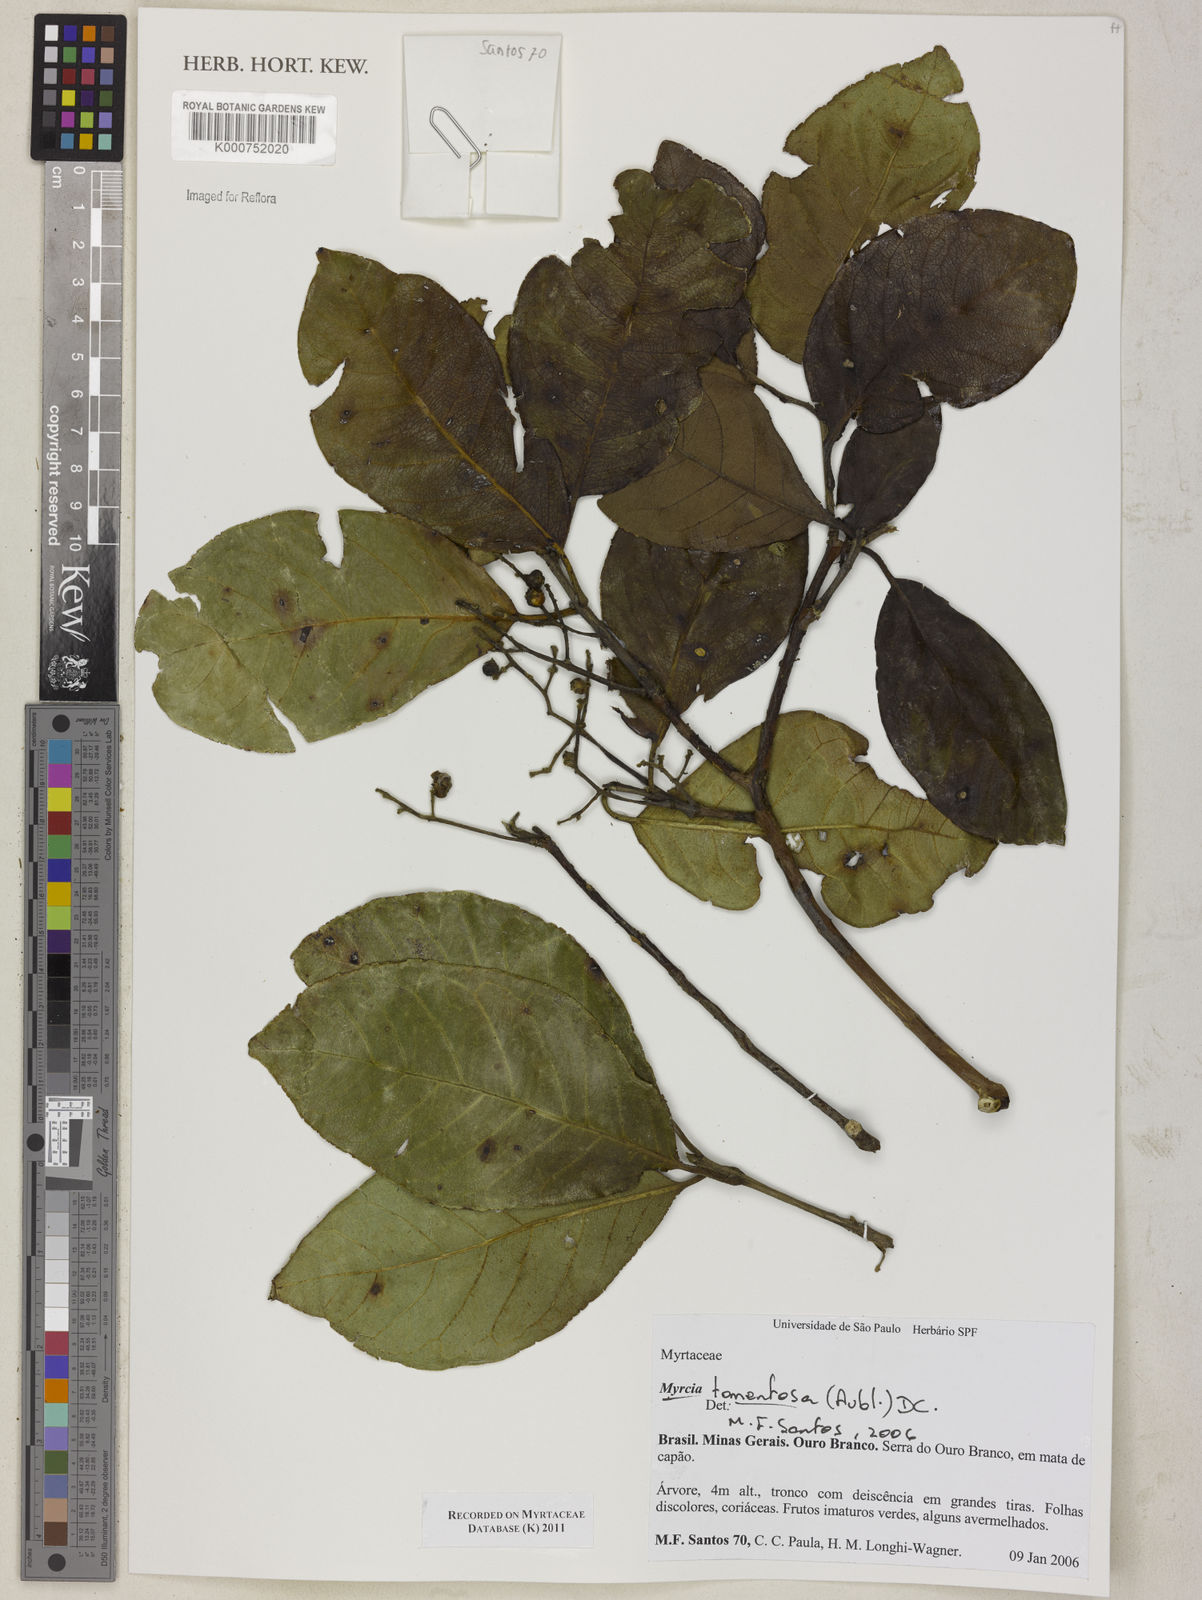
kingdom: Plantae
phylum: Tracheophyta
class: Magnoliopsida
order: Myrtales
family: Myrtaceae
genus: Myrcia
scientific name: Myrcia tomentosa
